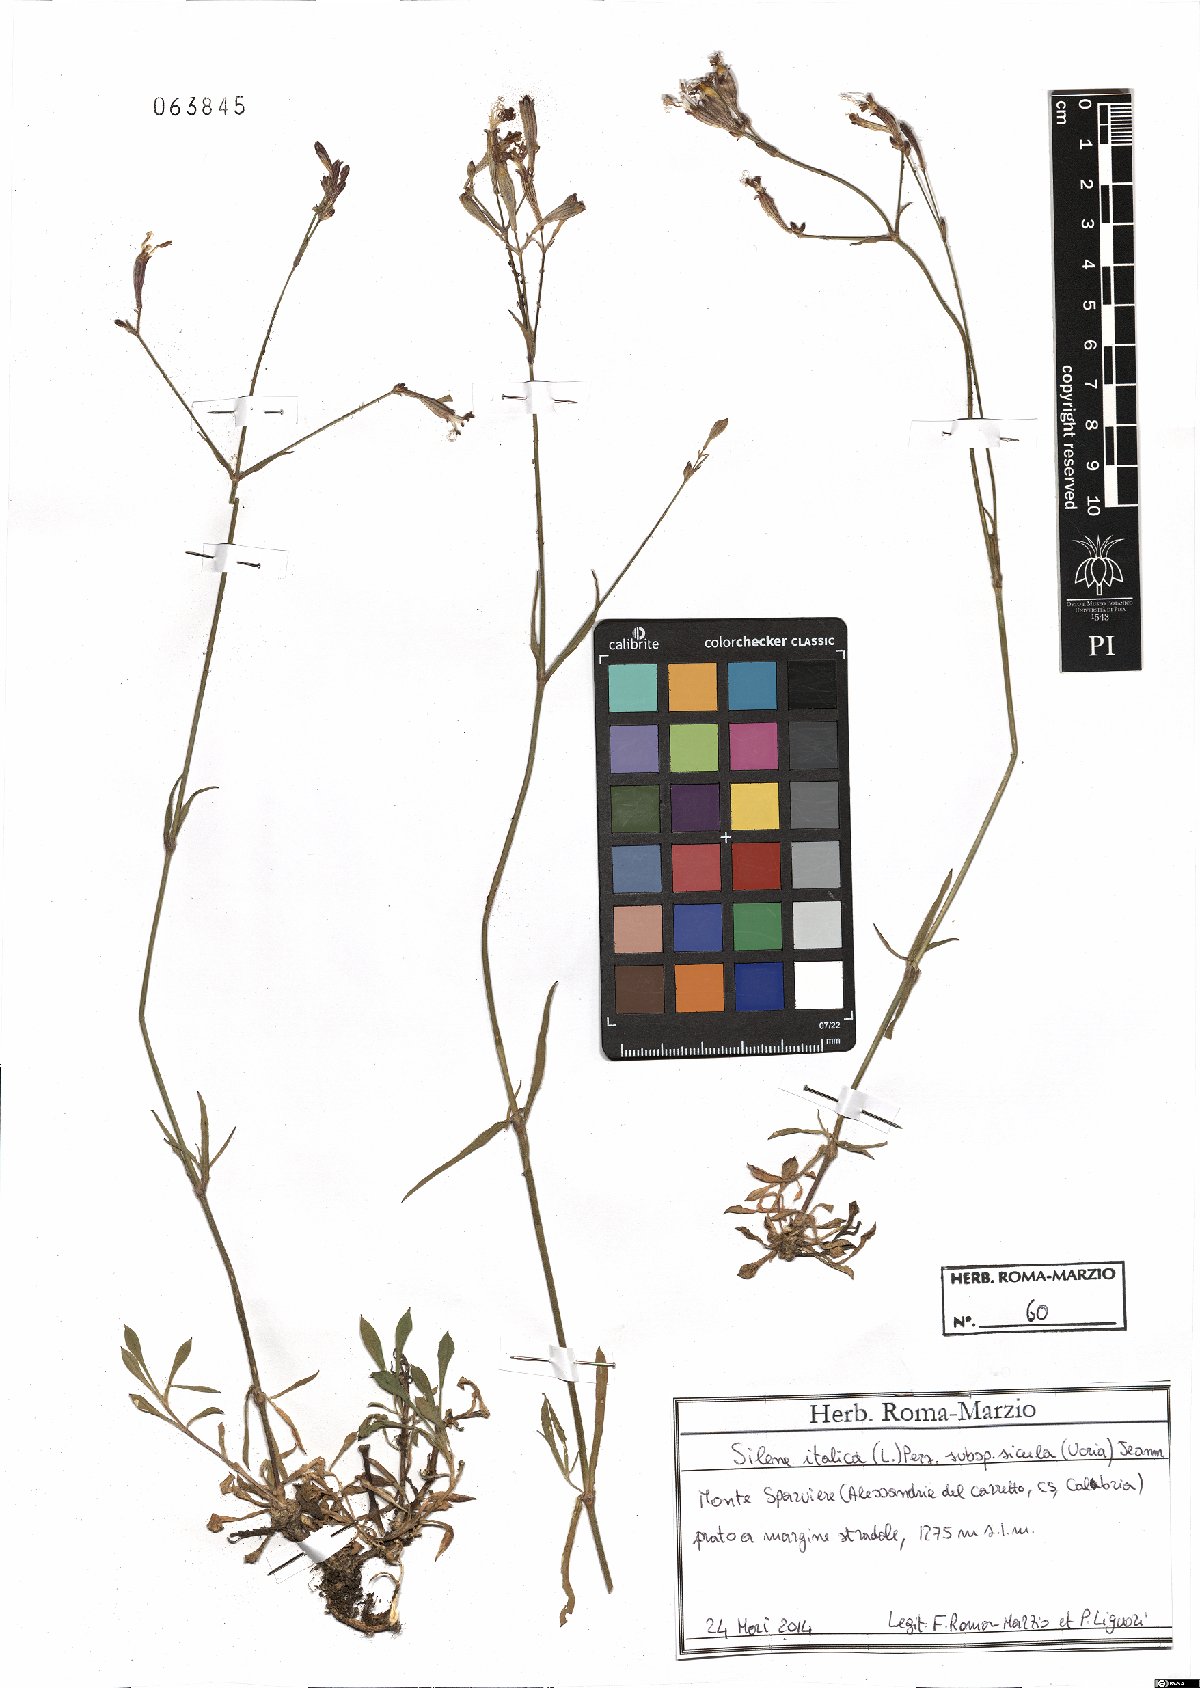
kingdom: Plantae
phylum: Tracheophyta
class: Magnoliopsida
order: Caryophyllales
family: Caryophyllaceae
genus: Silene
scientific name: Silene italica
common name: Italian catchfly
